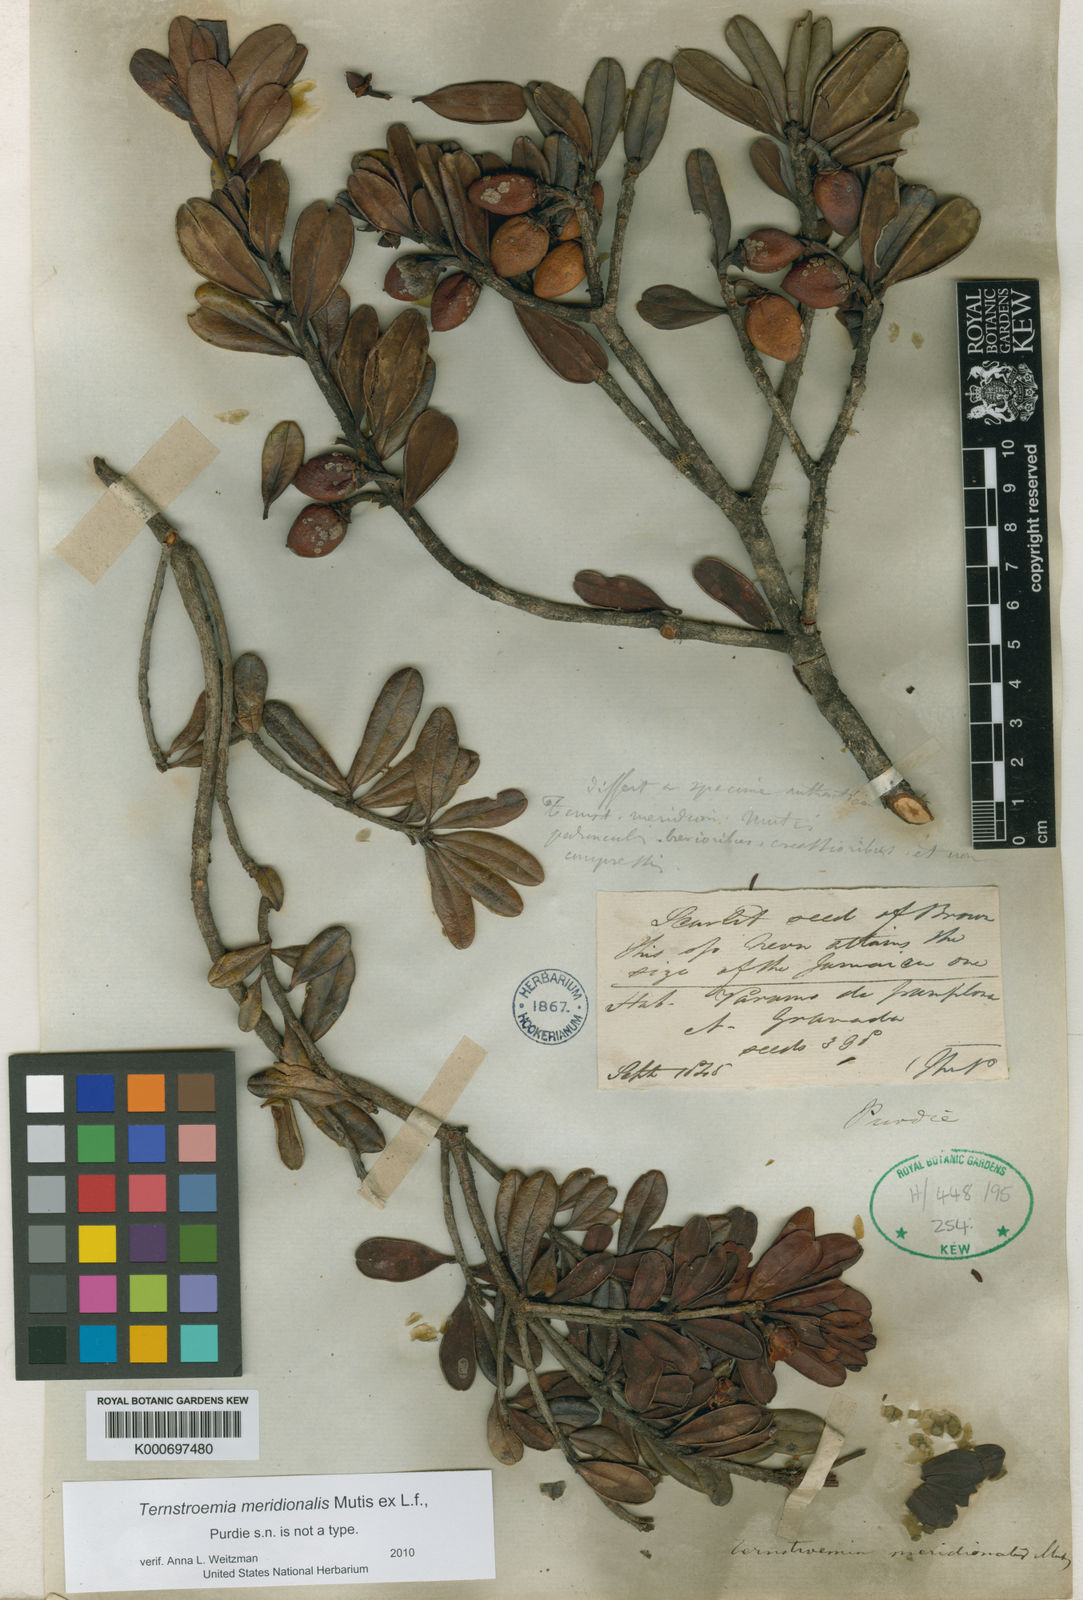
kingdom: Plantae
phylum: Tracheophyta
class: Magnoliopsida
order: Ericales
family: Pentaphylacaceae
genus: Ternstroemia
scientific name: Ternstroemia meridionalis
